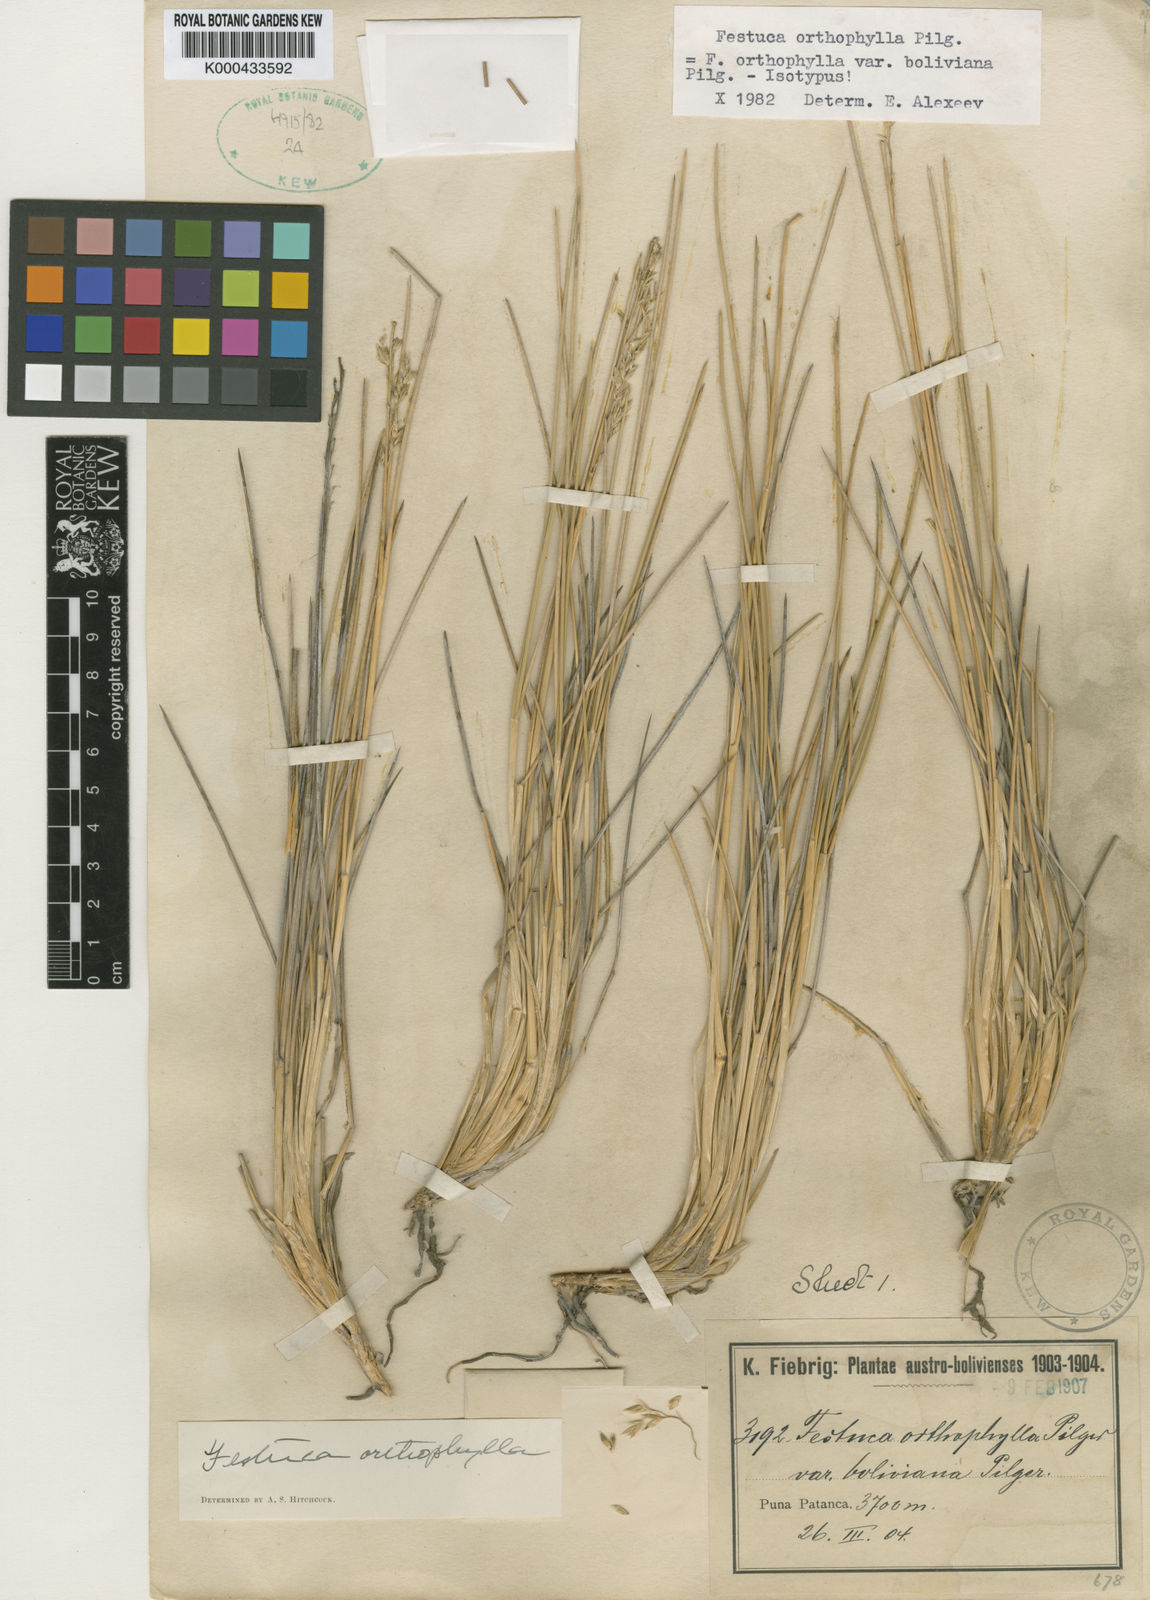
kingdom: Plantae
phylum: Tracheophyta
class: Liliopsida
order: Poales
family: Poaceae
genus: Festuca
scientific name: Festuca chrysophylla
